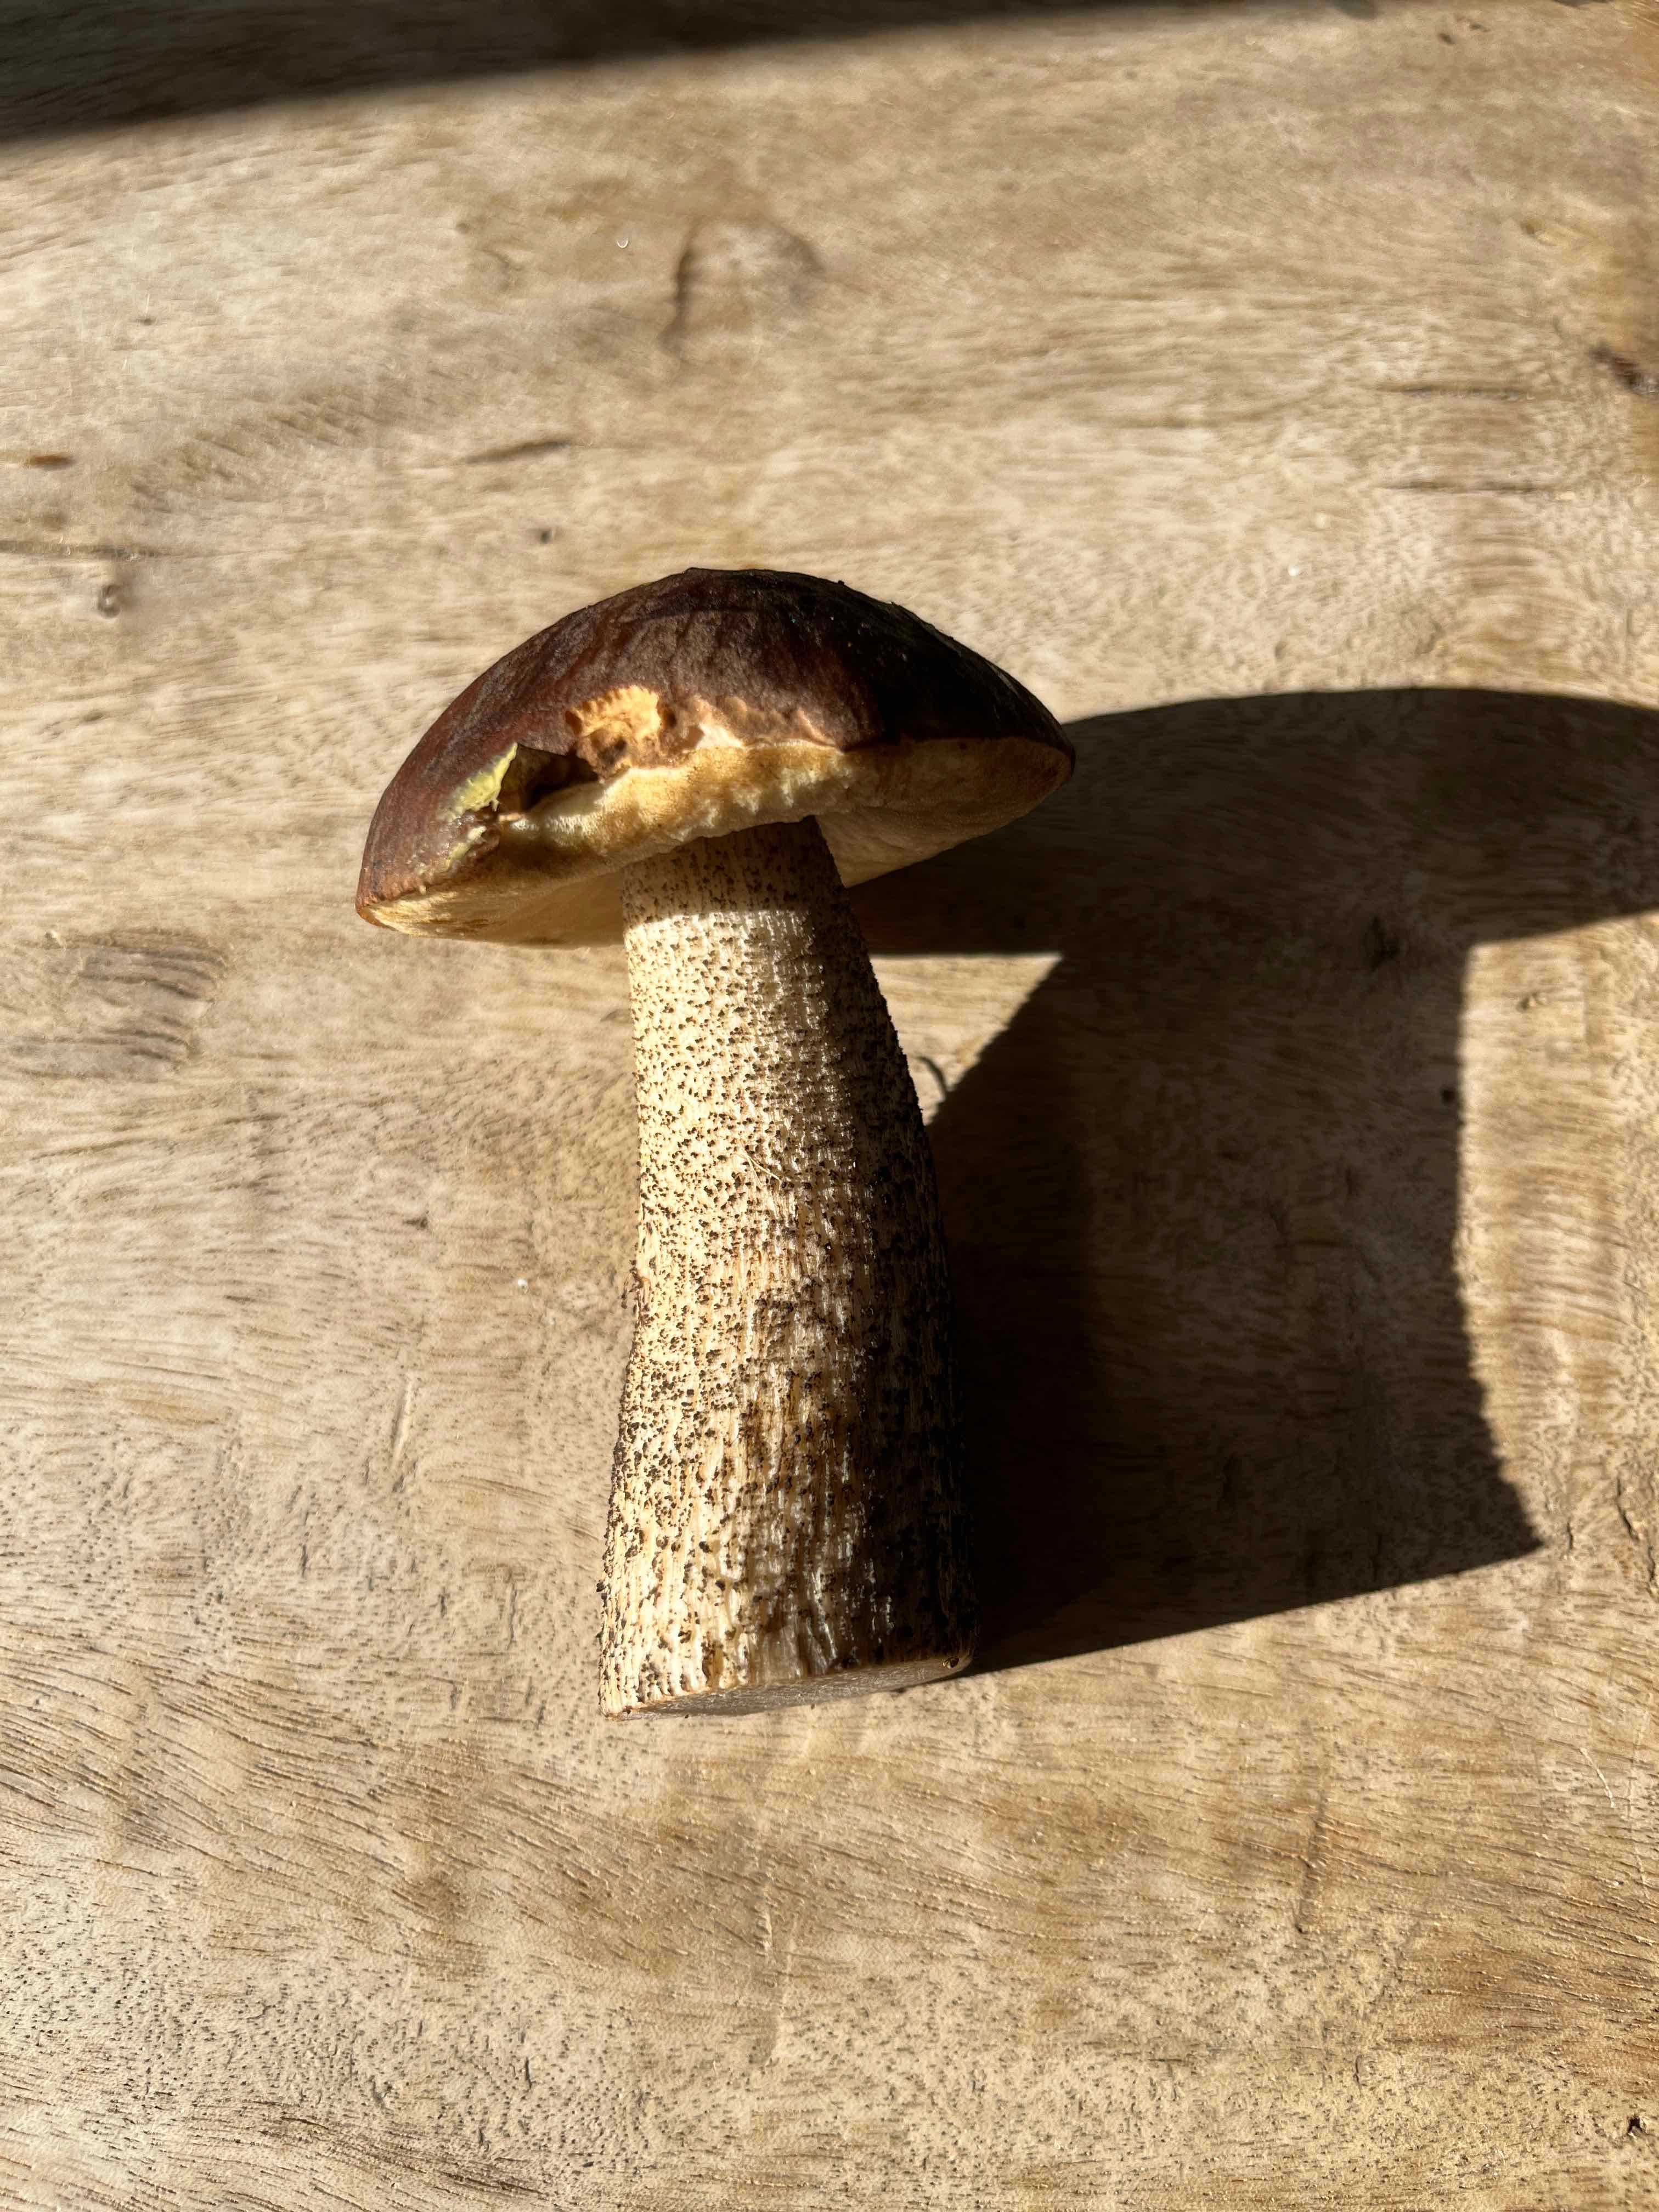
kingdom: Fungi
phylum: Basidiomycota
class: Agaricomycetes
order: Boletales
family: Boletaceae
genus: Leccinum
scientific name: Leccinum scabrum
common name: brun skælrørhat
